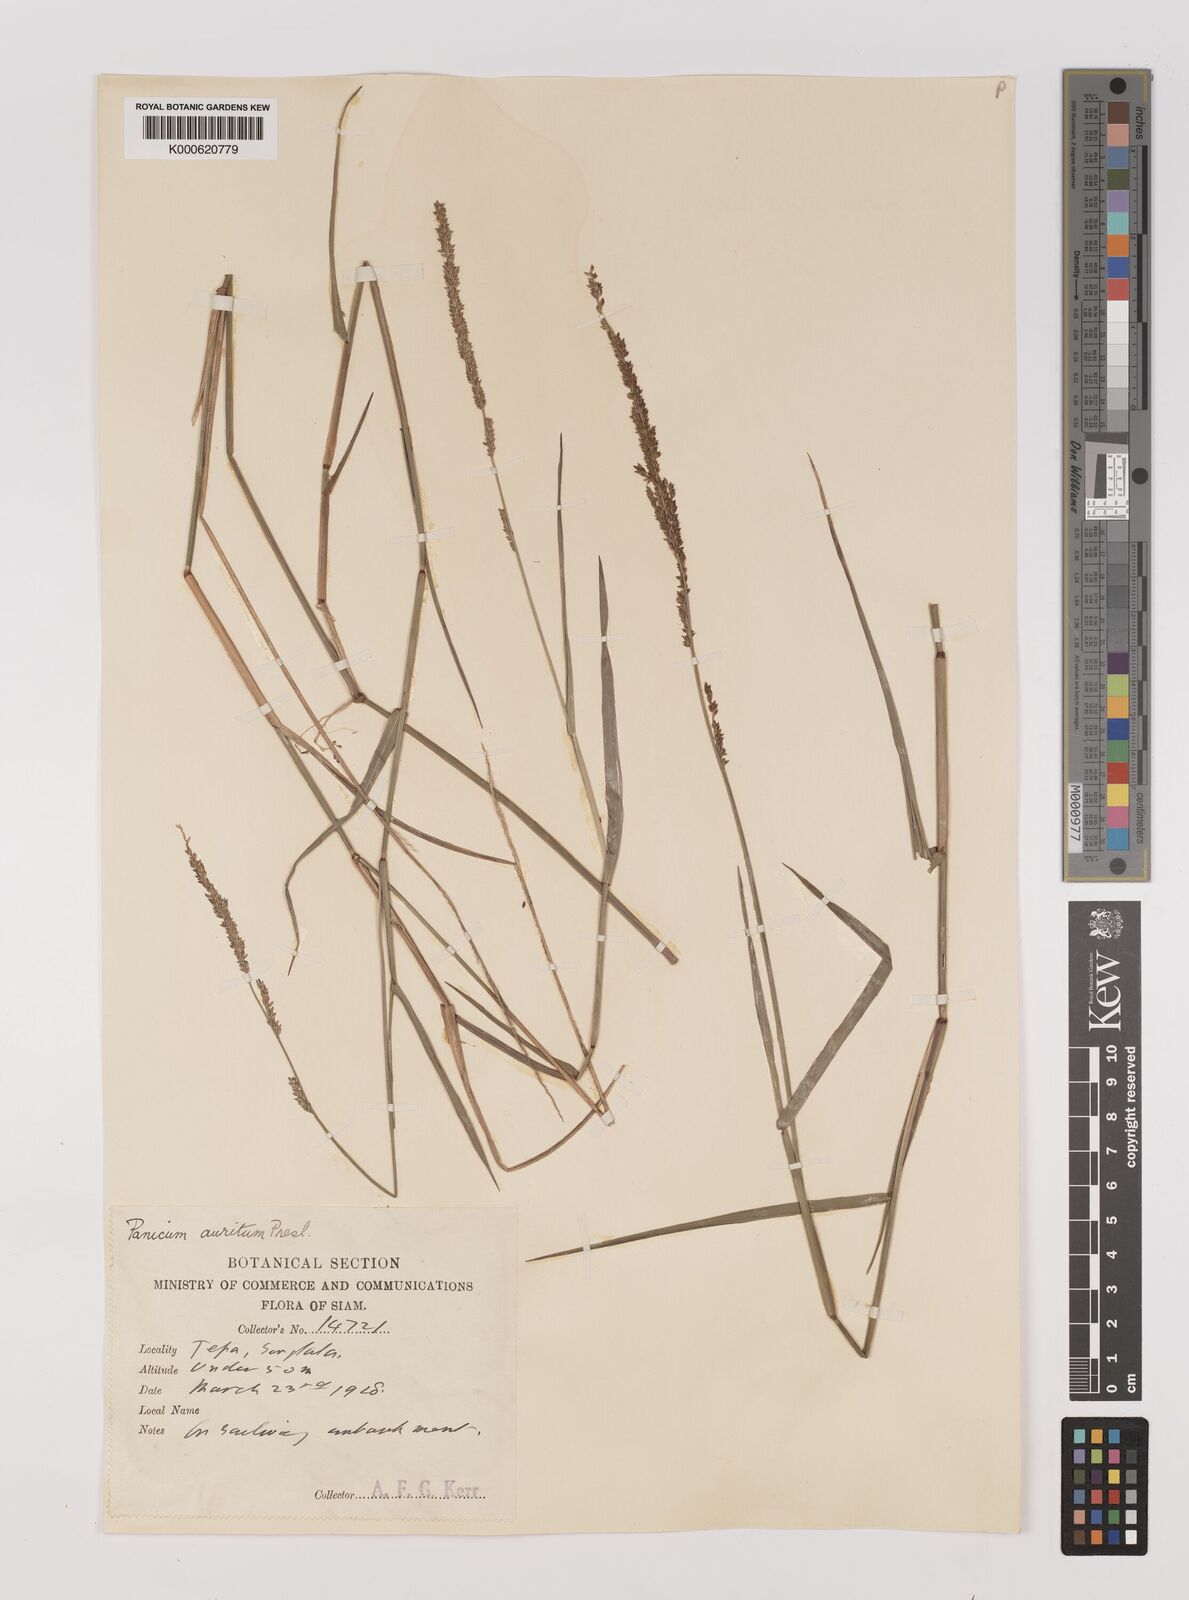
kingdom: Plantae
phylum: Tracheophyta
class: Liliopsida
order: Poales
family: Poaceae
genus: Hymenachne
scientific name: Hymenachne aurita
